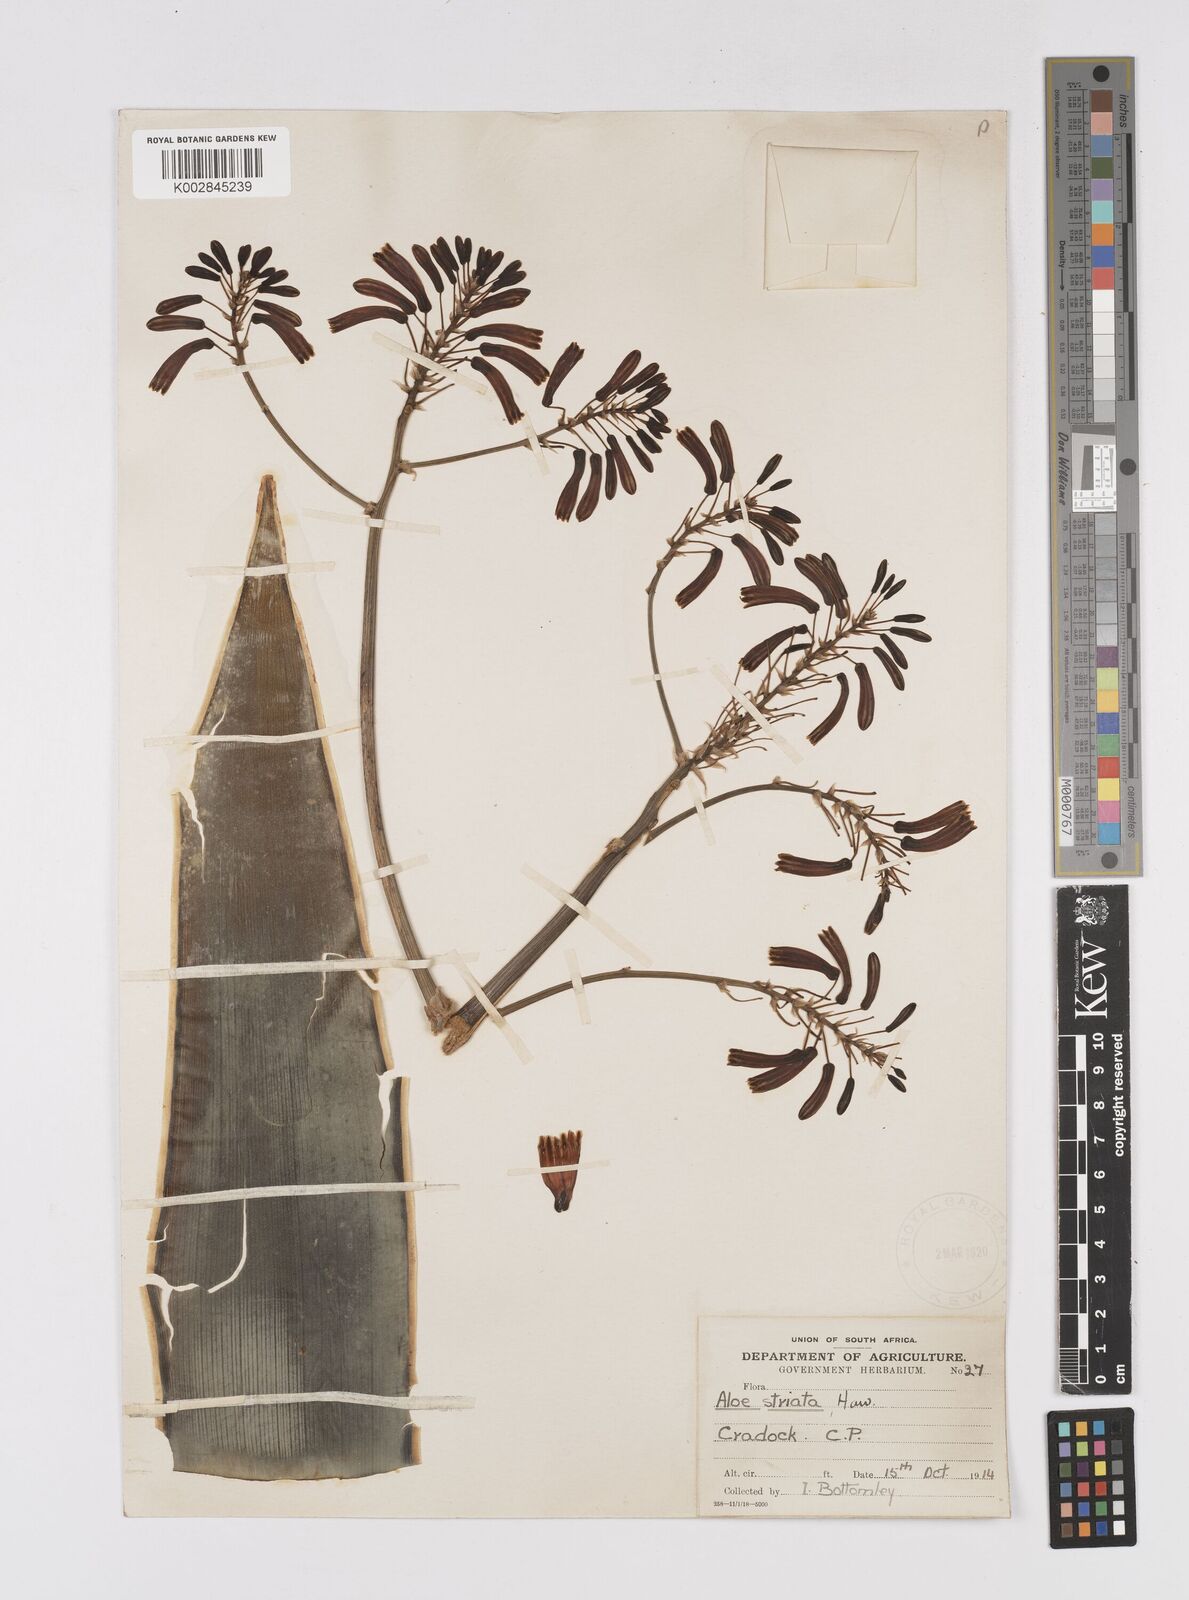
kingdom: Plantae
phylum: Tracheophyta
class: Liliopsida
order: Asparagales
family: Asphodelaceae
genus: Aloe
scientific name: Aloe striata
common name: Coral aloe
